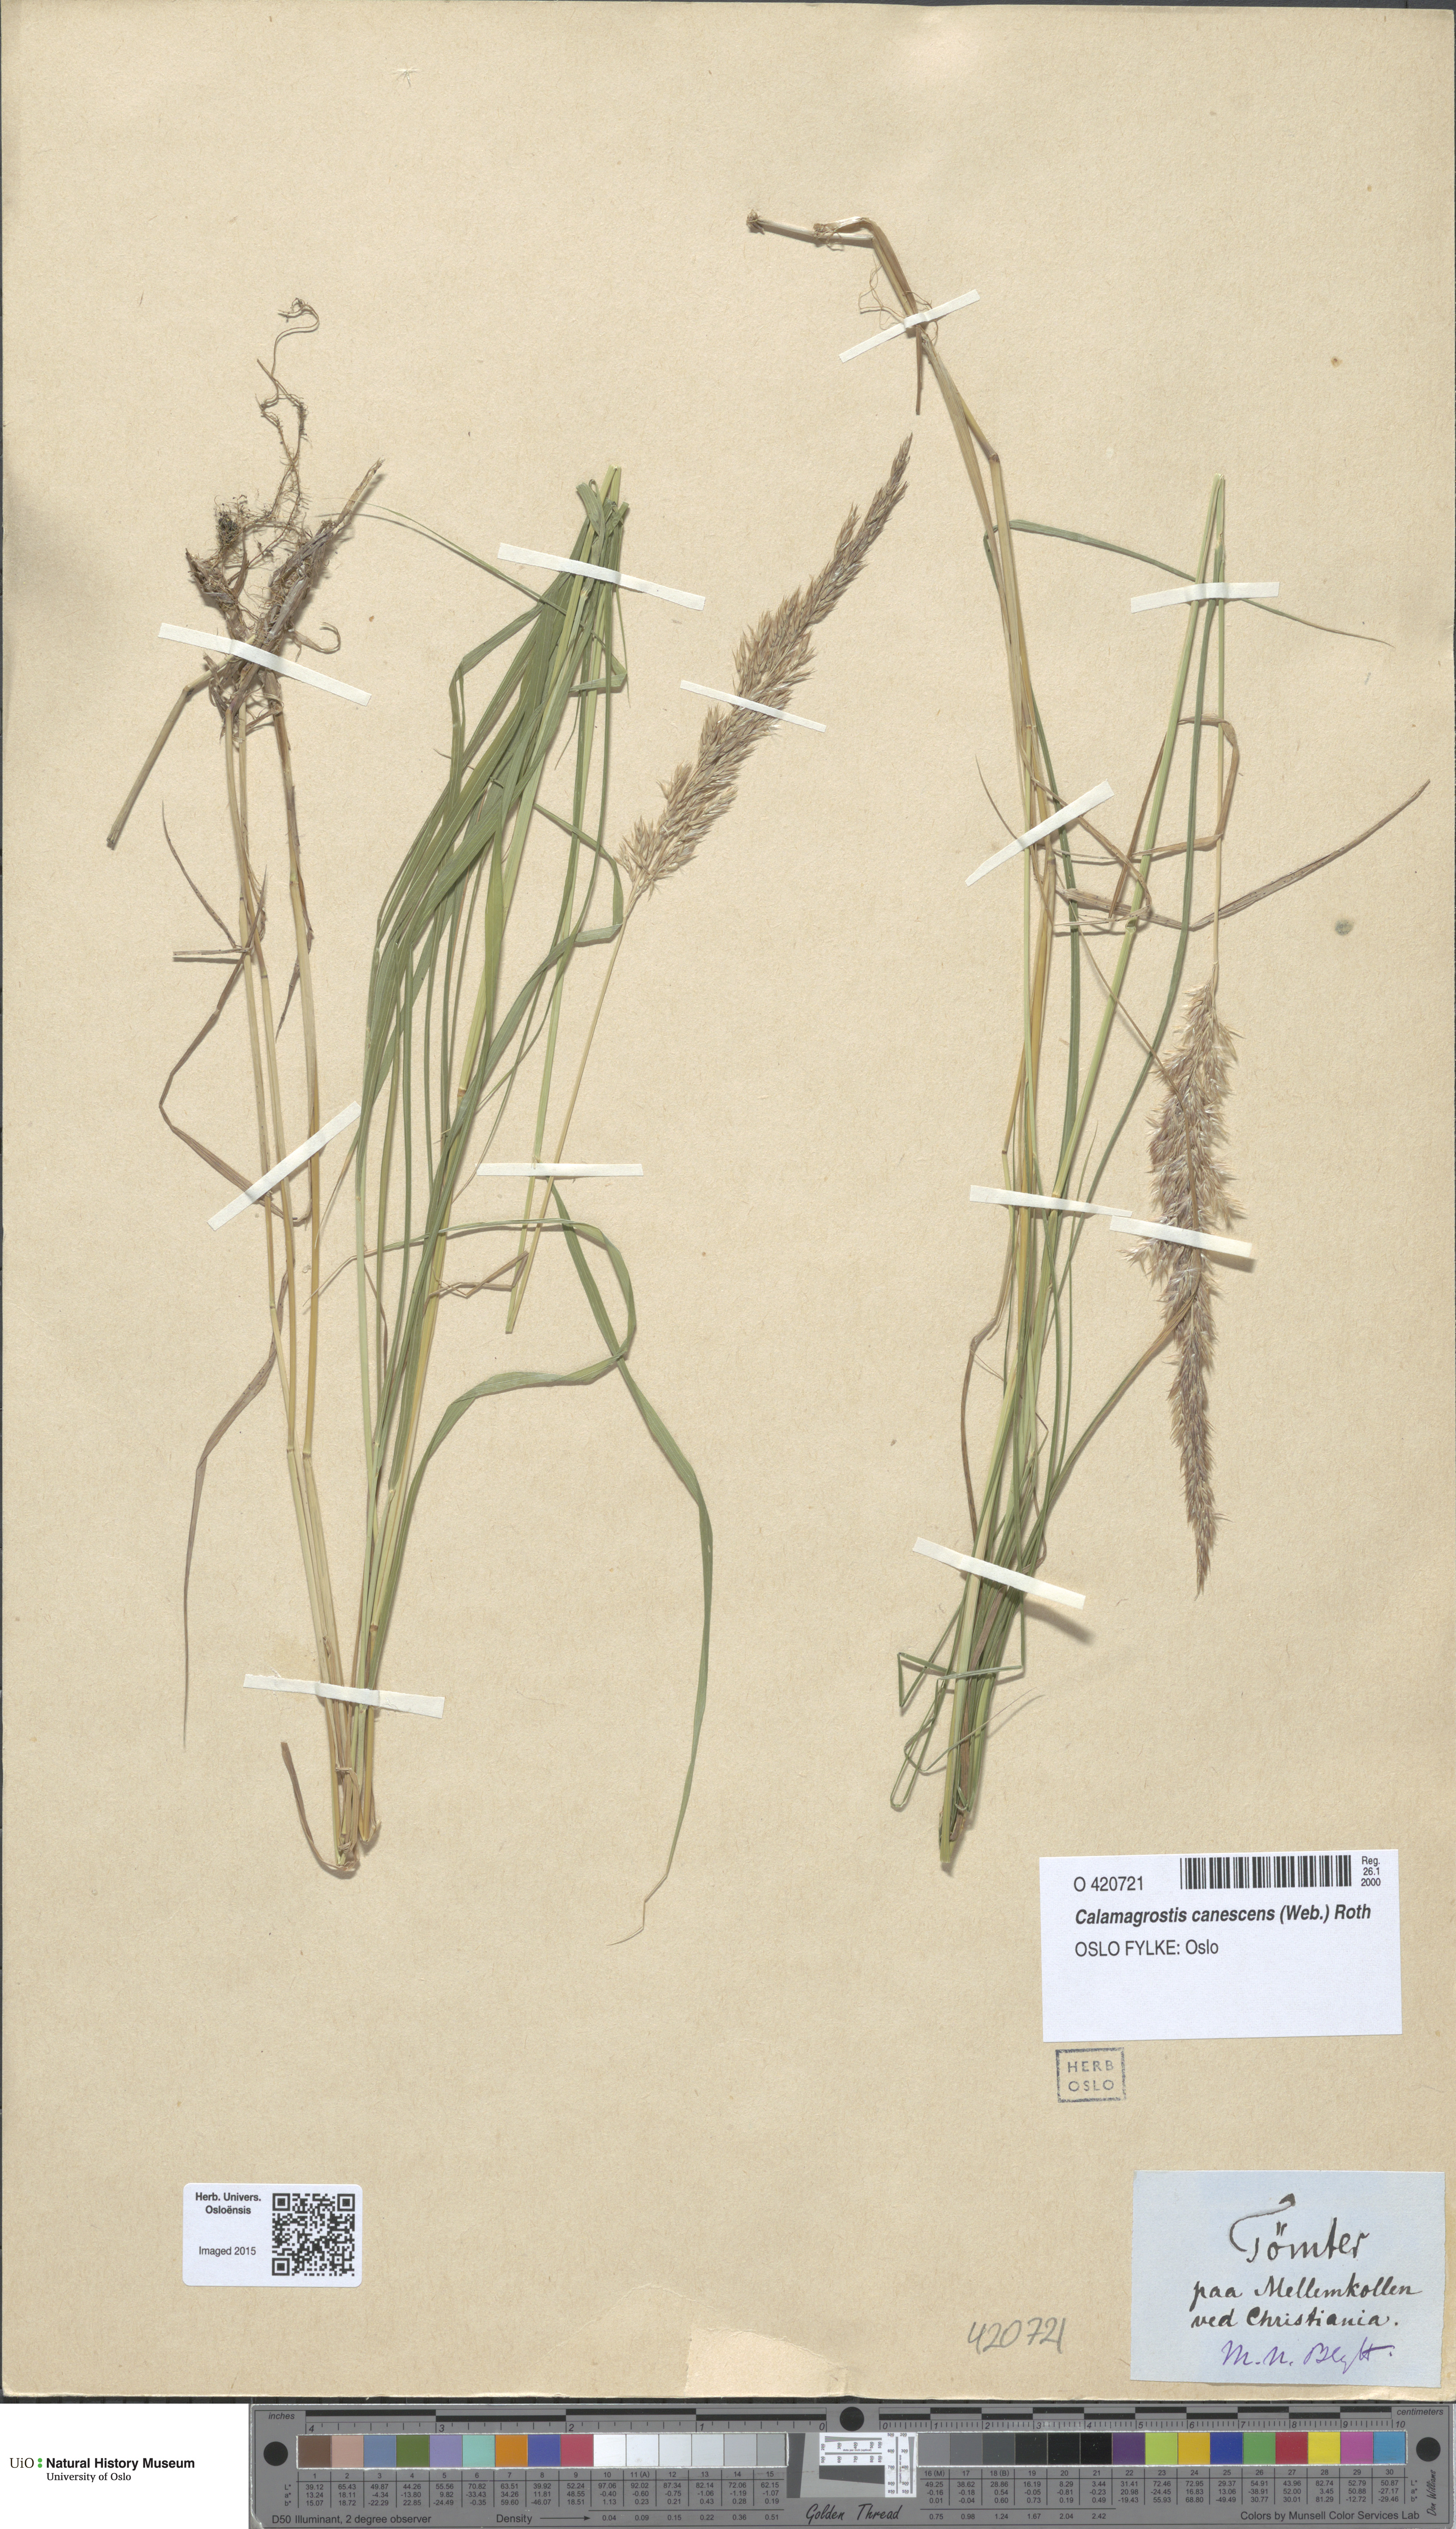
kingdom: Plantae
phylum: Tracheophyta
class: Liliopsida
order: Poales
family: Poaceae
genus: Calamagrostis
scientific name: Calamagrostis canescens
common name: Purple small-reed
